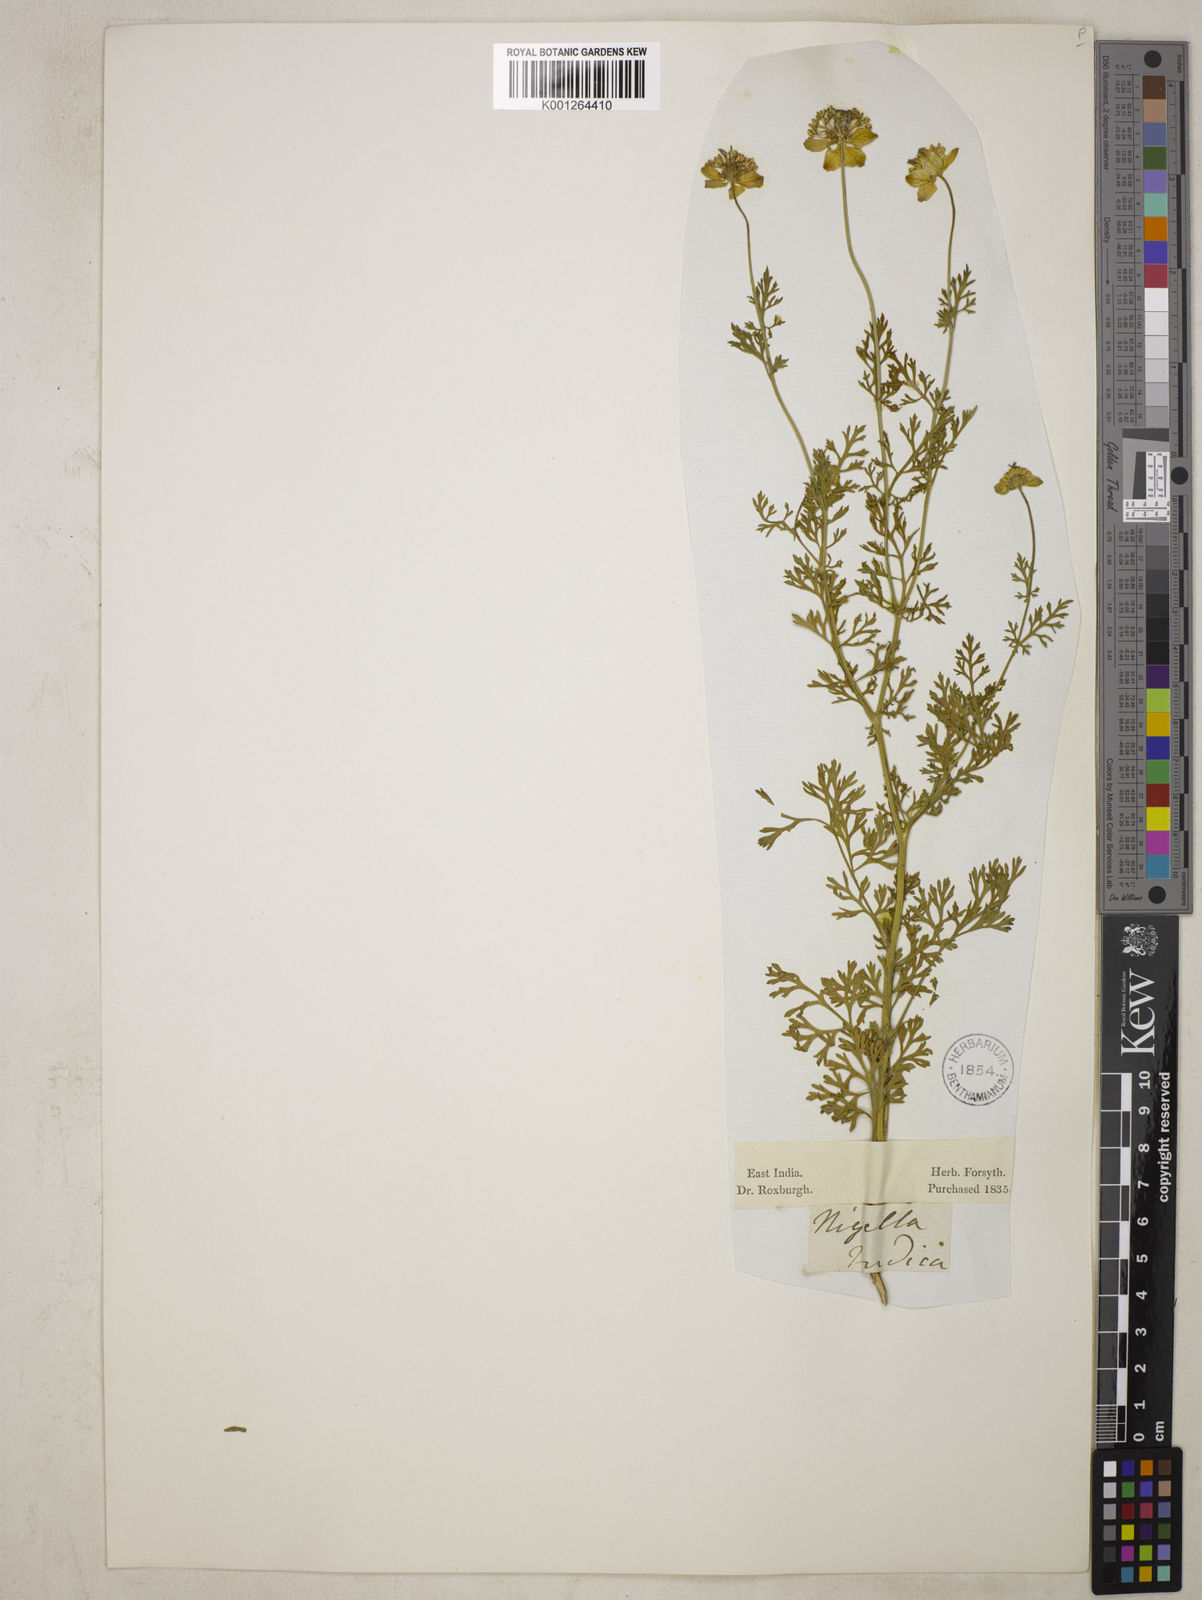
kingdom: Plantae
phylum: Tracheophyta
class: Magnoliopsida
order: Ranunculales
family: Ranunculaceae
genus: Nigella
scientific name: Nigella sativa
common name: Black-cumin
